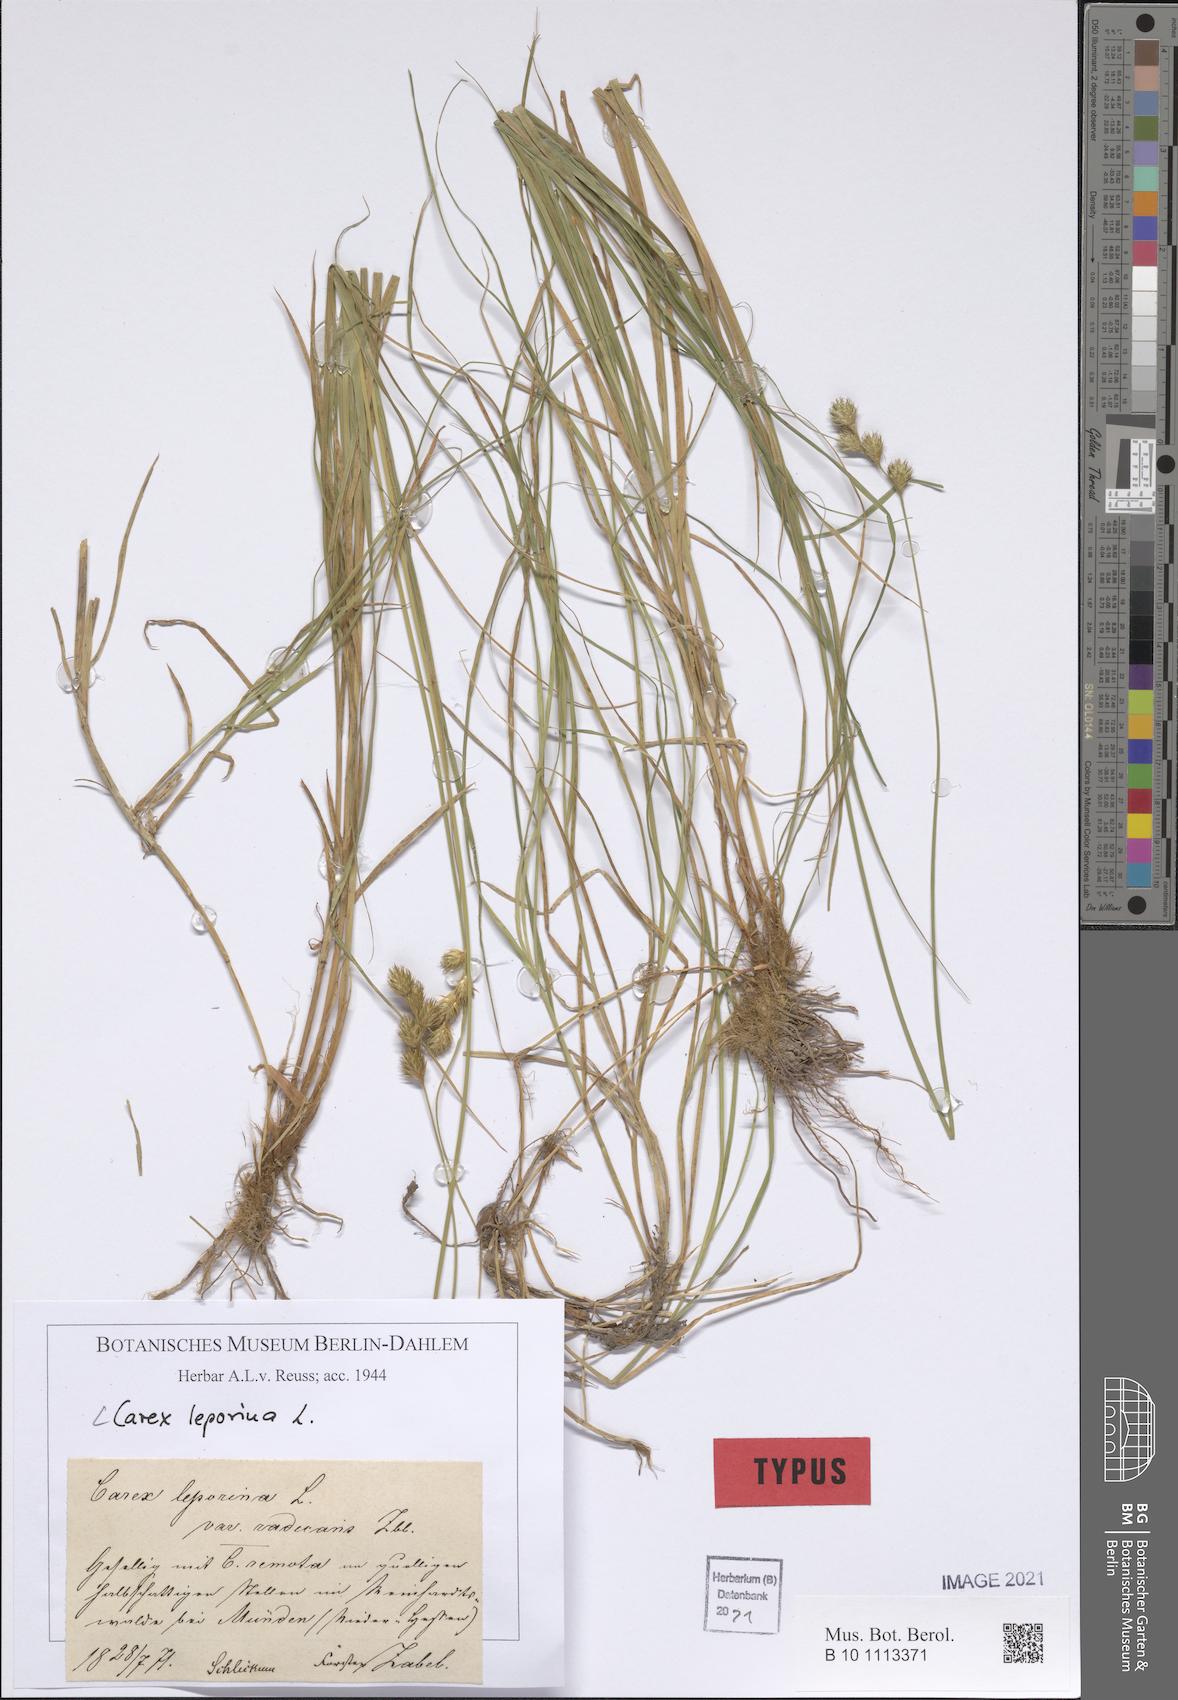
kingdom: Plantae
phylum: Tracheophyta
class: Liliopsida
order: Poales
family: Cyperaceae
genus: Carex
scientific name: Carex leporina
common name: Oval sedge
